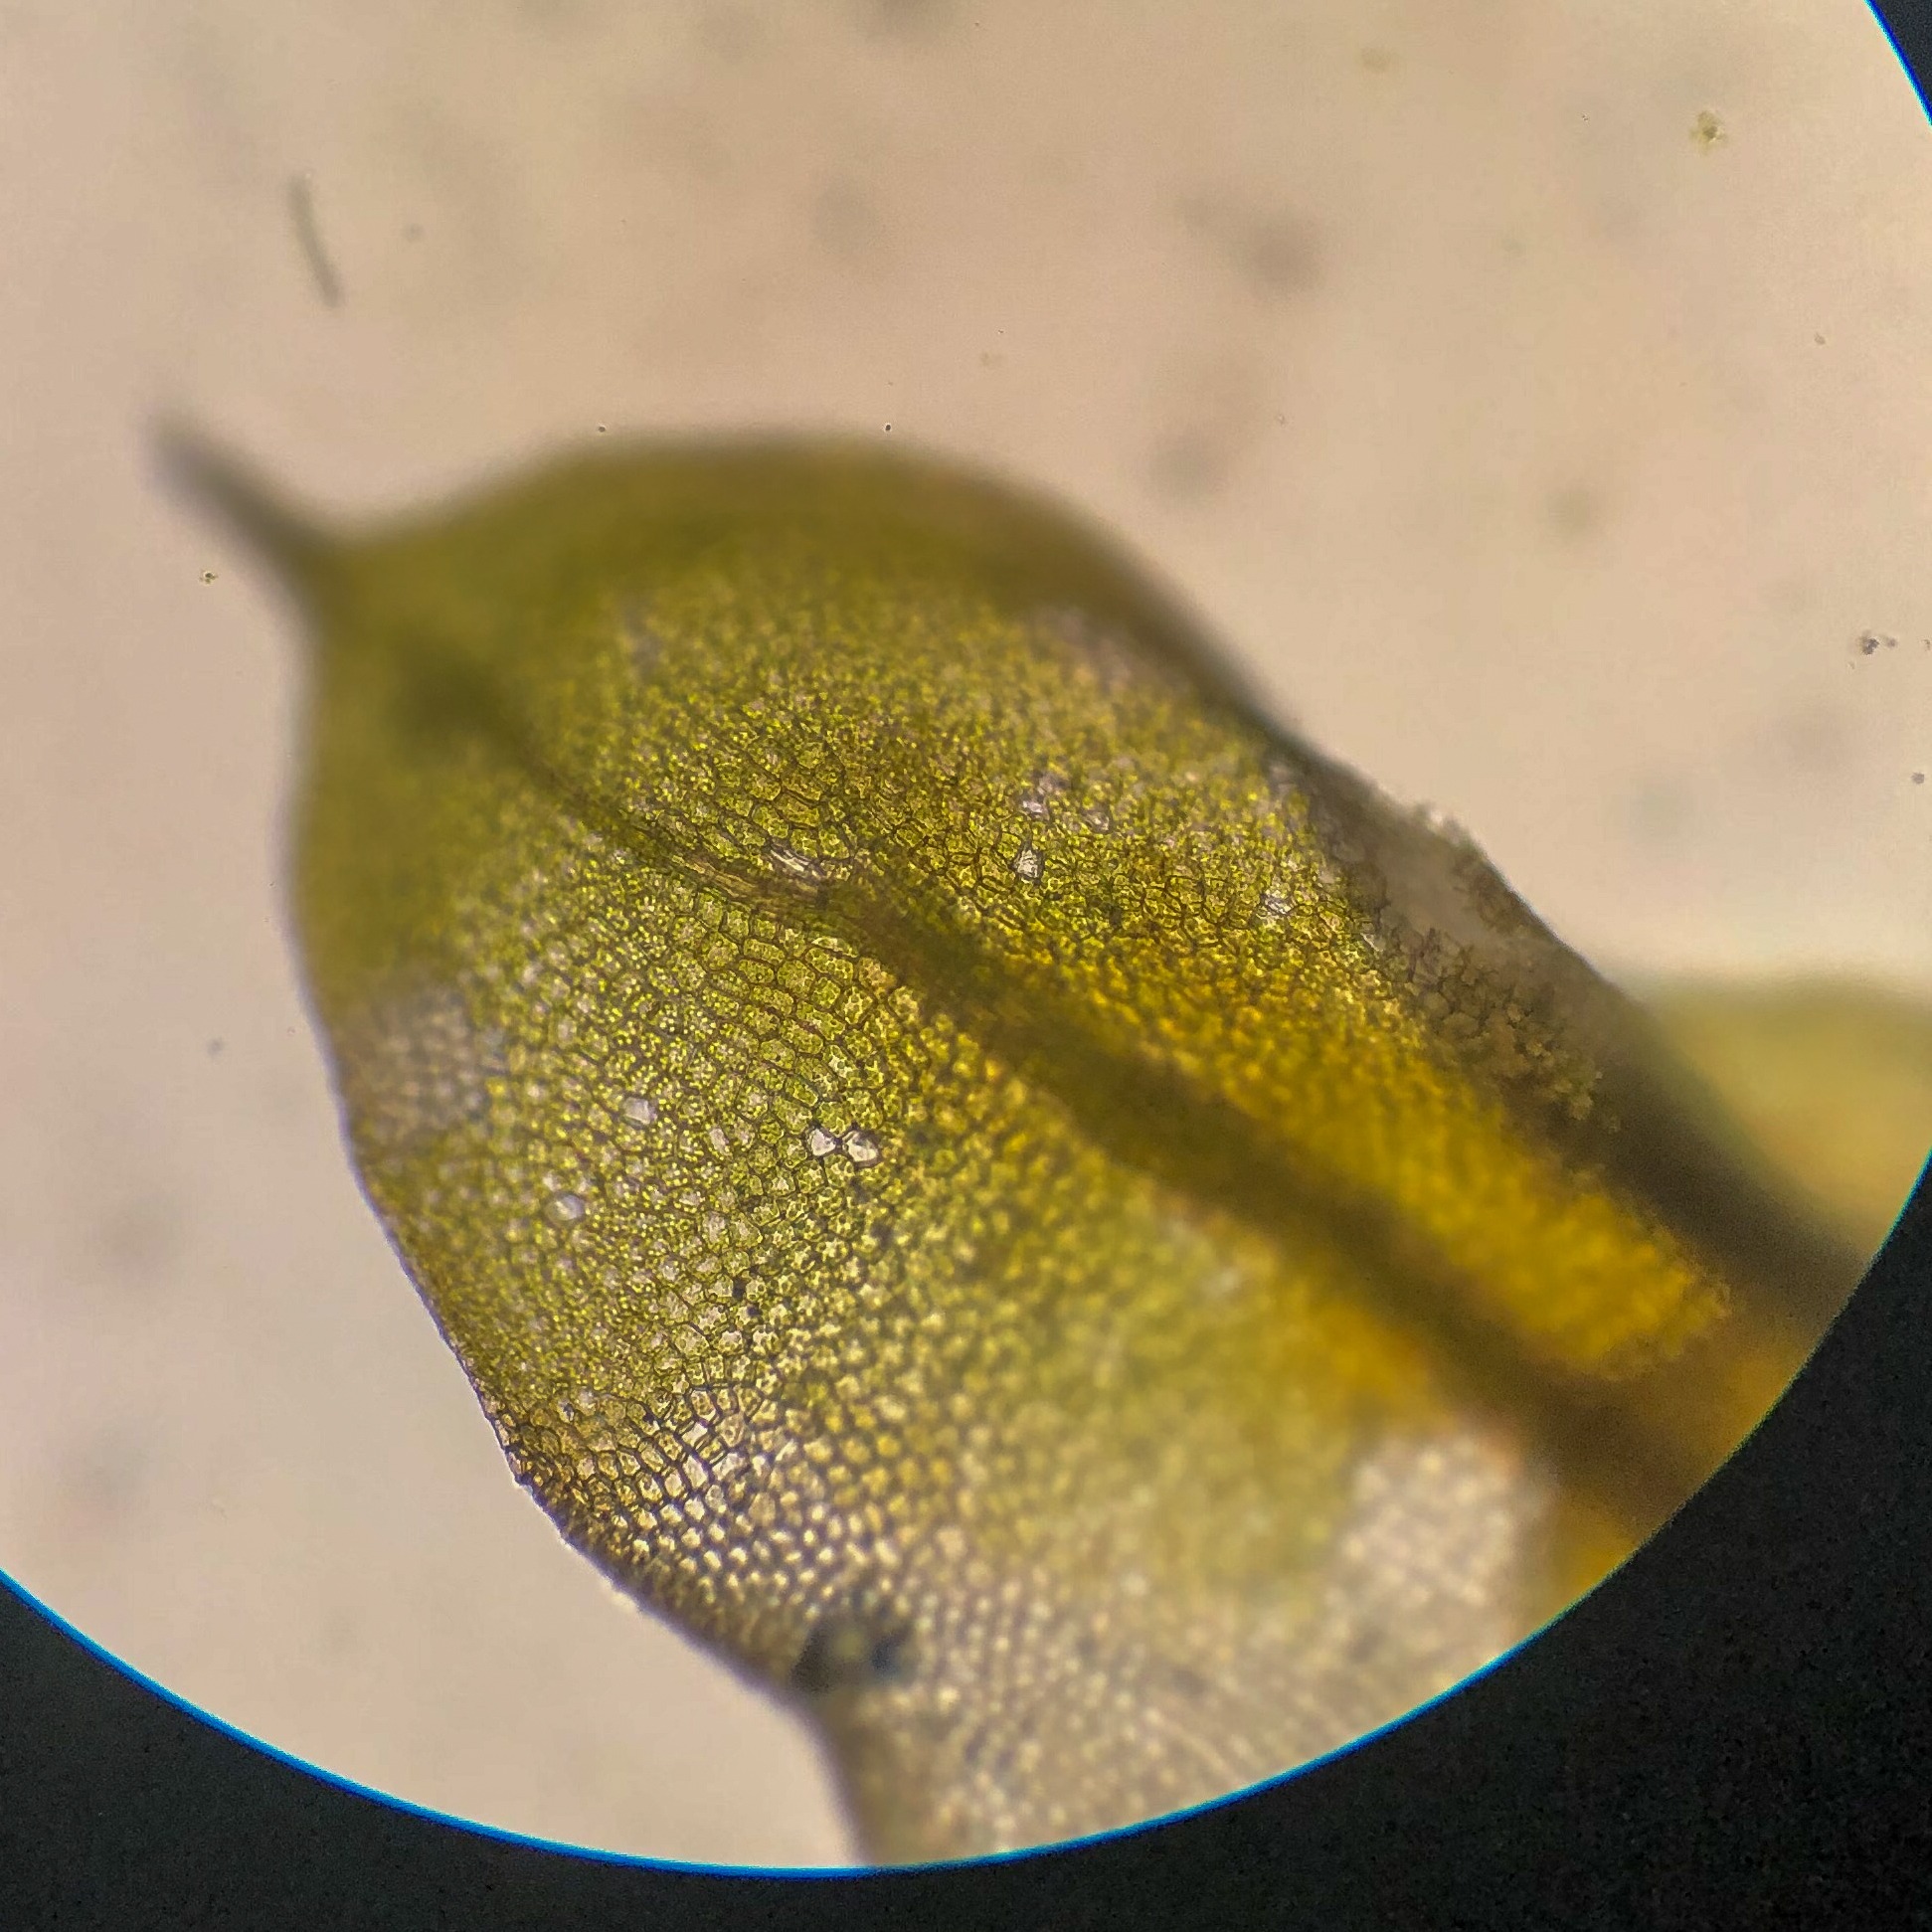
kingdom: Plantae
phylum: Bryophyta
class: Bryopsida
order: Pottiales
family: Pottiaceae
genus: Tortula
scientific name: Tortula
